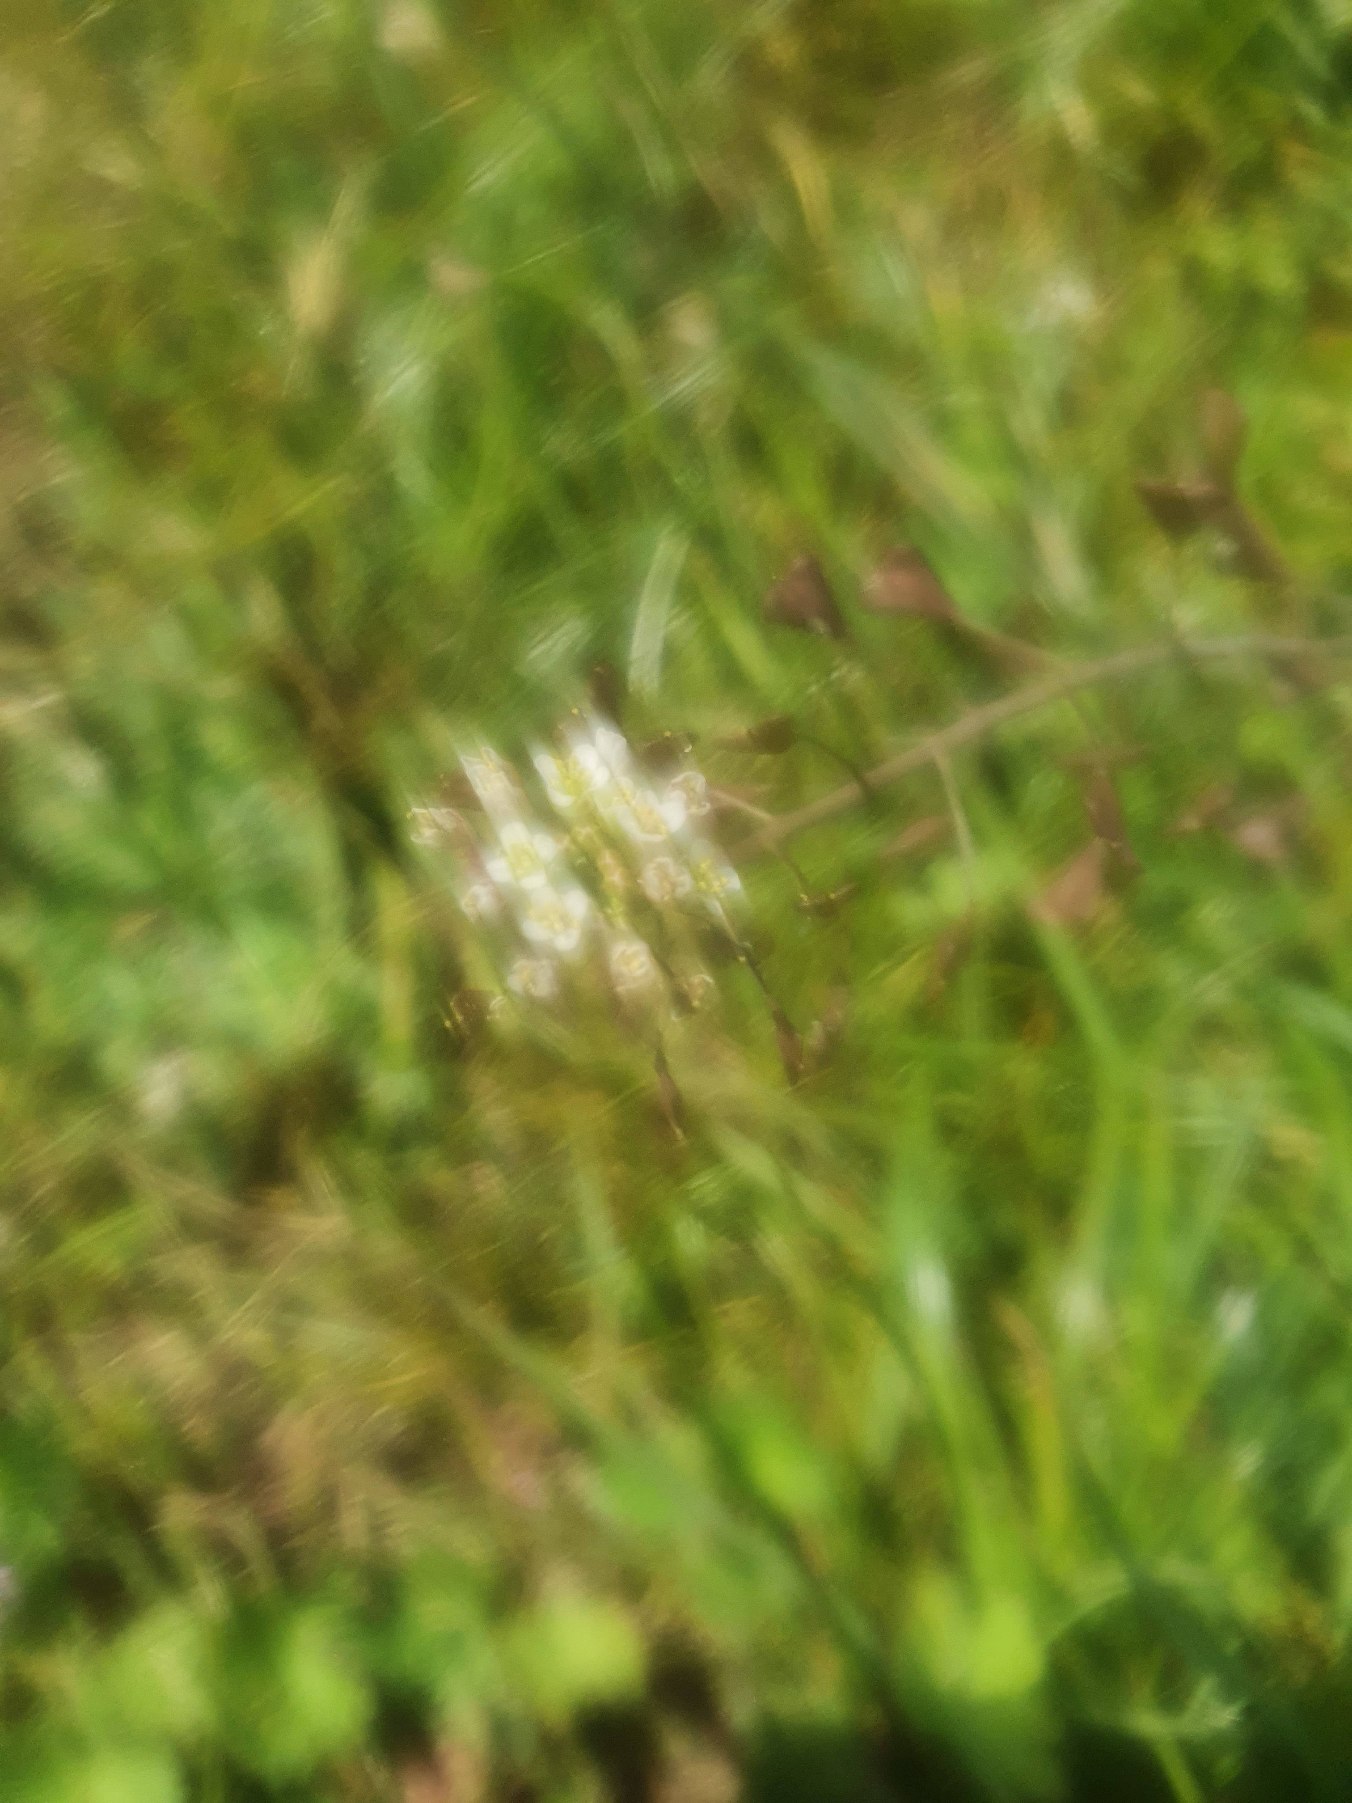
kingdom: Plantae
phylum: Tracheophyta
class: Magnoliopsida
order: Brassicales
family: Brassicaceae
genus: Capsella
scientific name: Capsella bursa-pastoris
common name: Hyrdetaske
